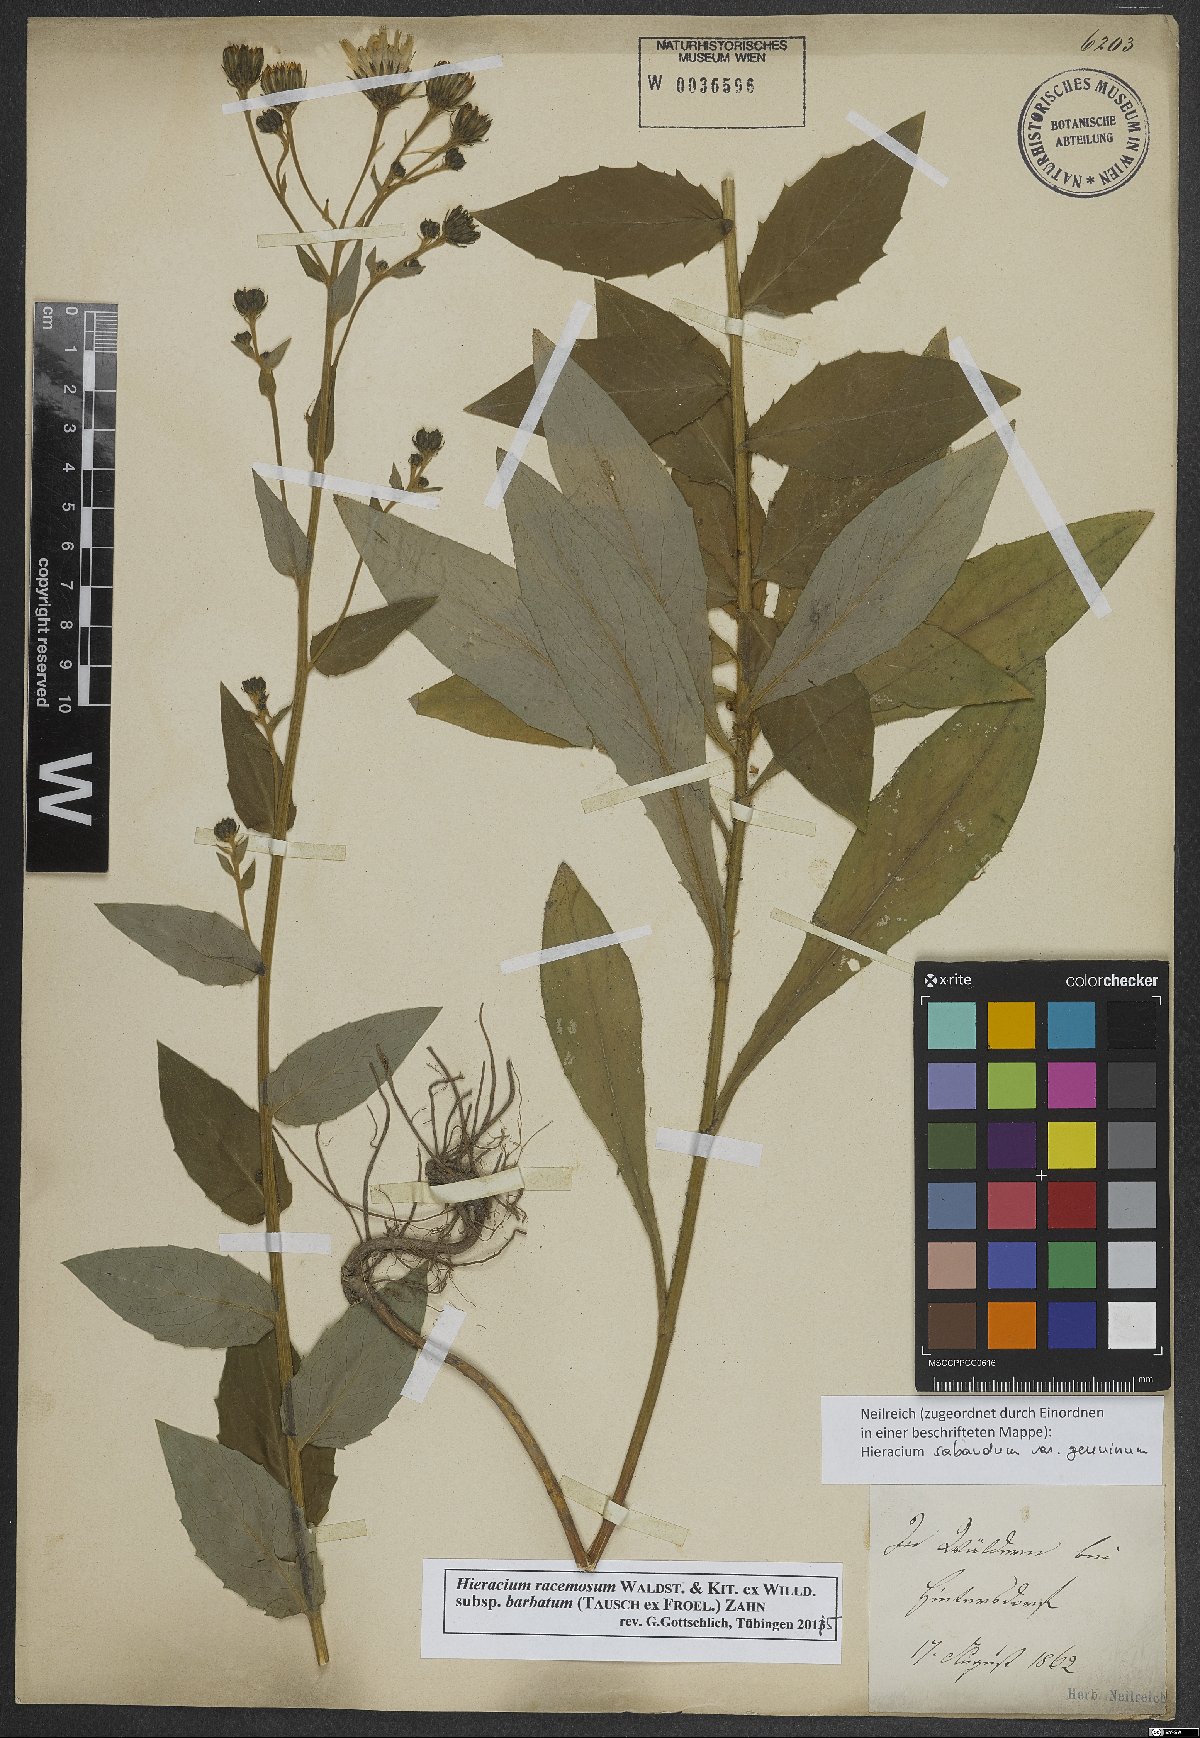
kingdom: Plantae
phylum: Tracheophyta
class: Magnoliopsida
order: Asterales
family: Asteraceae
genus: Hieracium
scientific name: Hieracium racemosum
